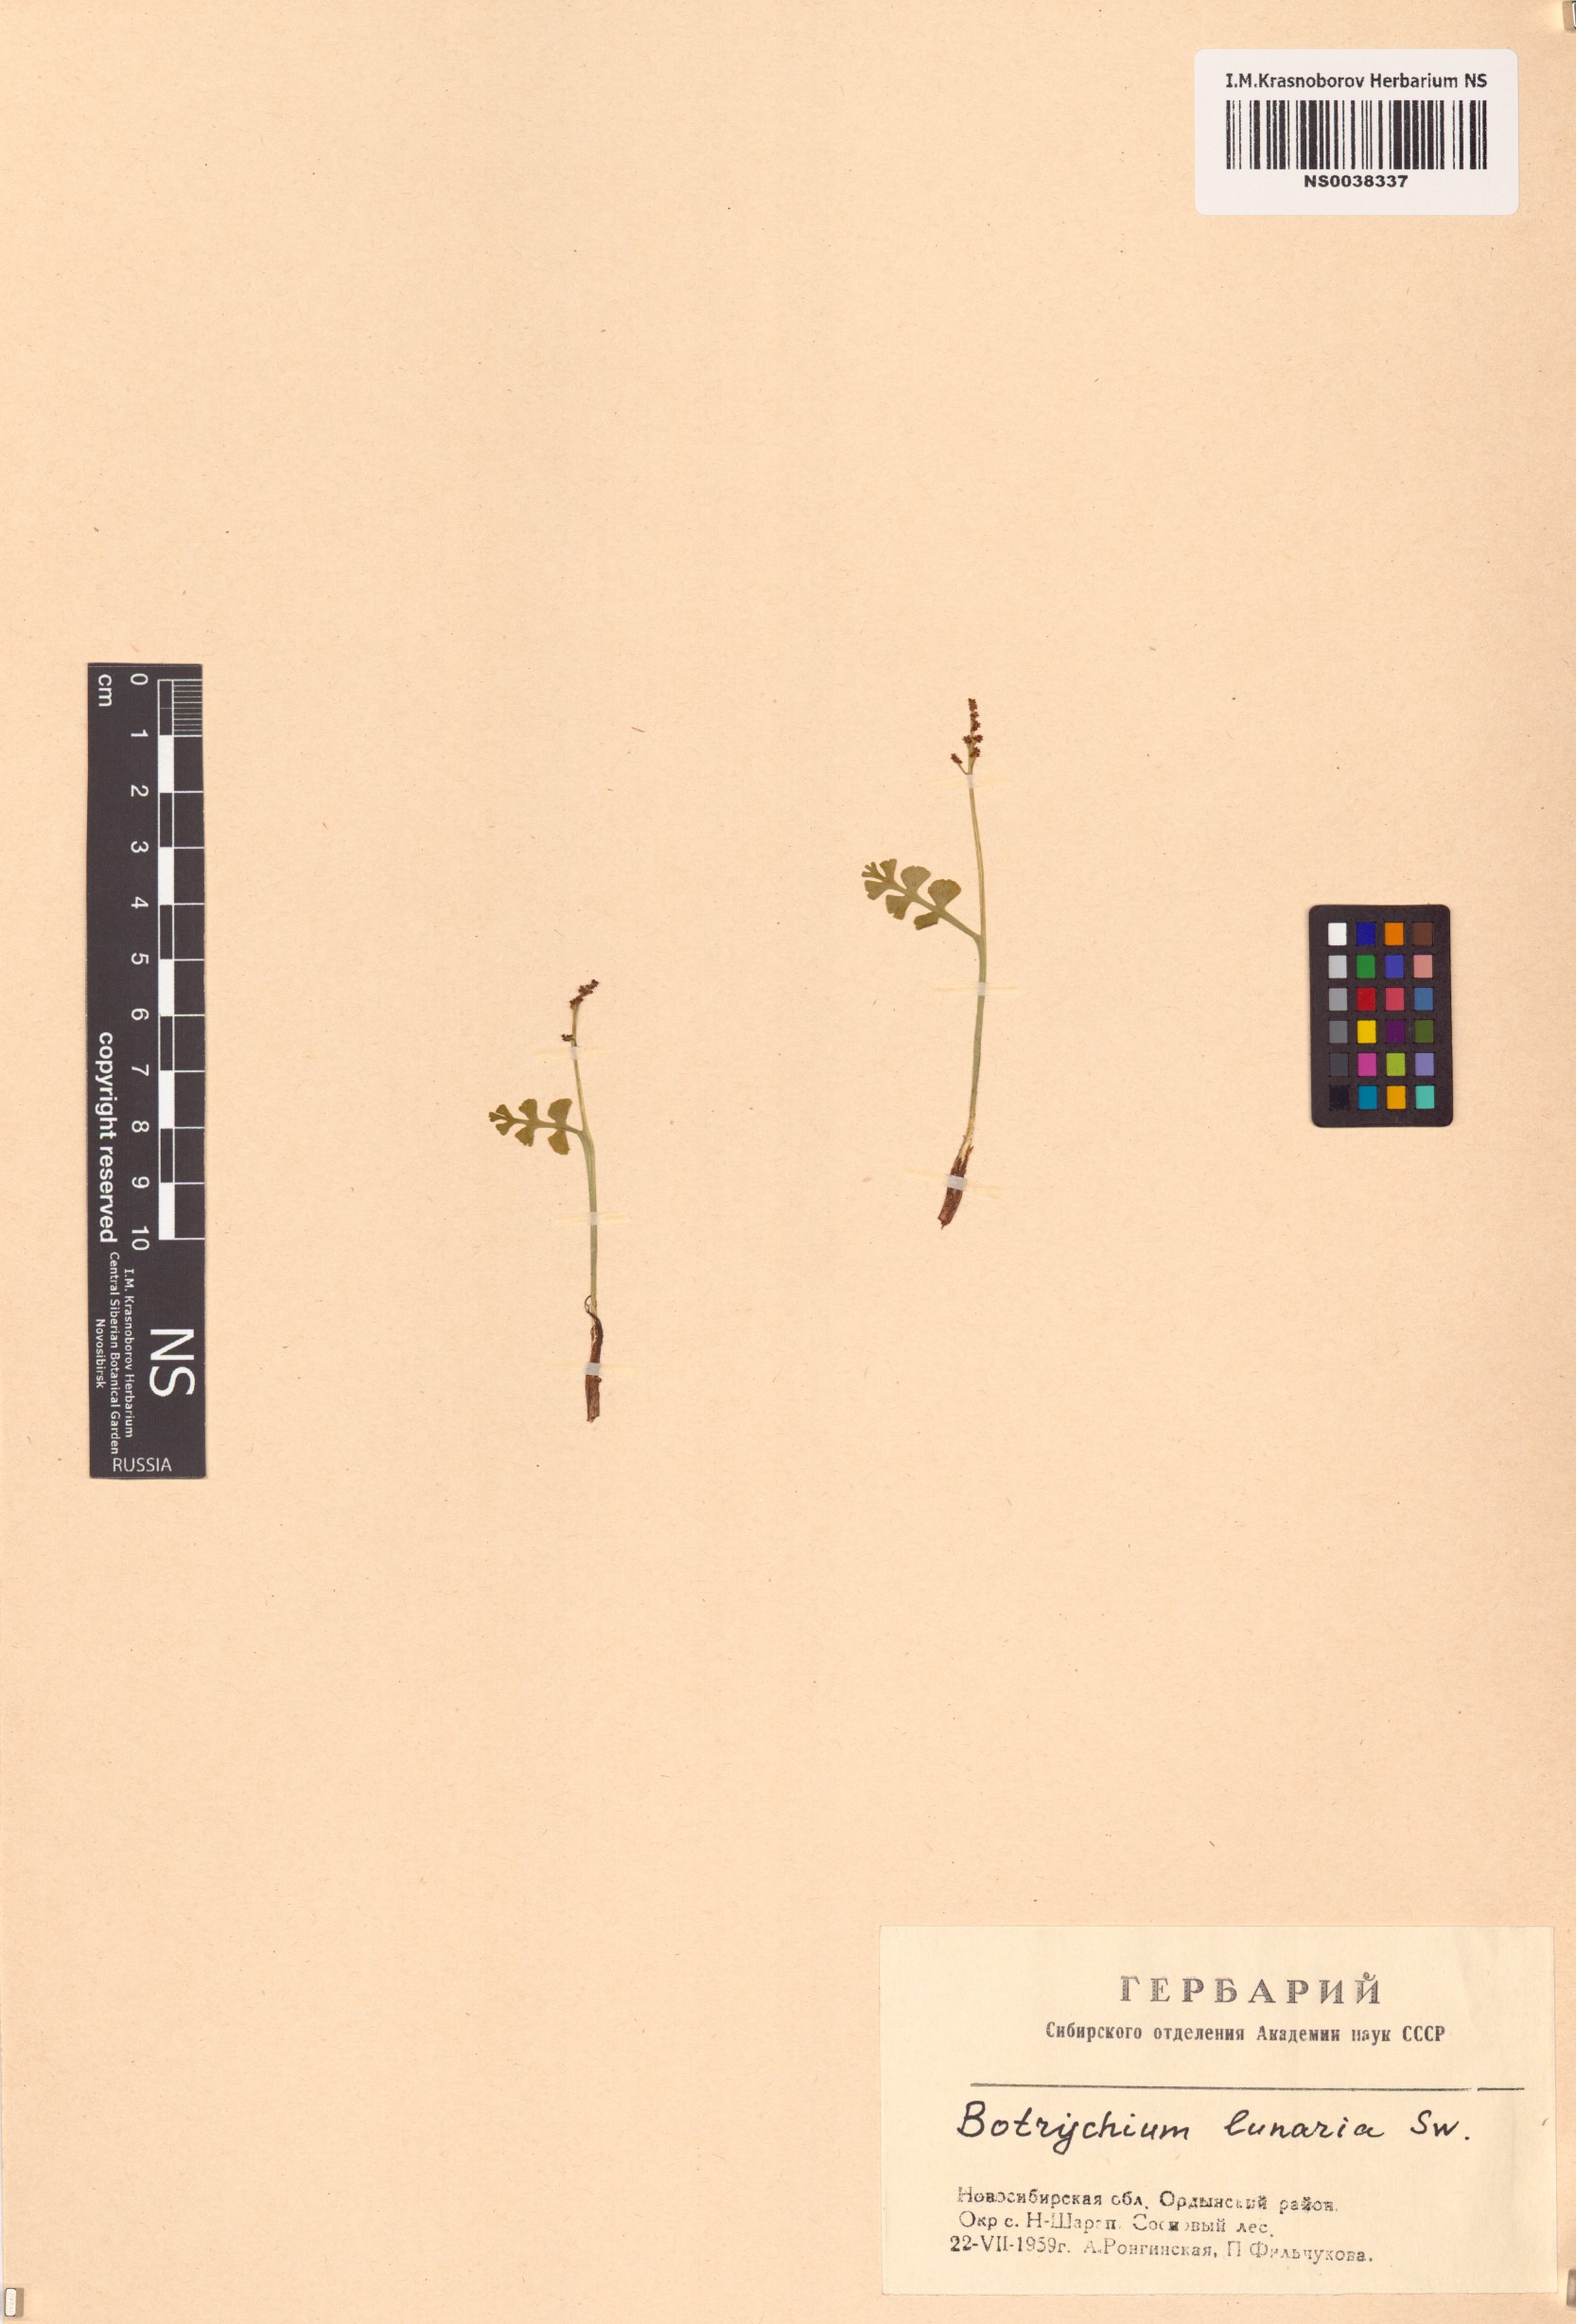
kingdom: Plantae
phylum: Tracheophyta
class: Polypodiopsida
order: Ophioglossales
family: Ophioglossaceae
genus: Botrychium
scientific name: Botrychium lunaria
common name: Moonwort
